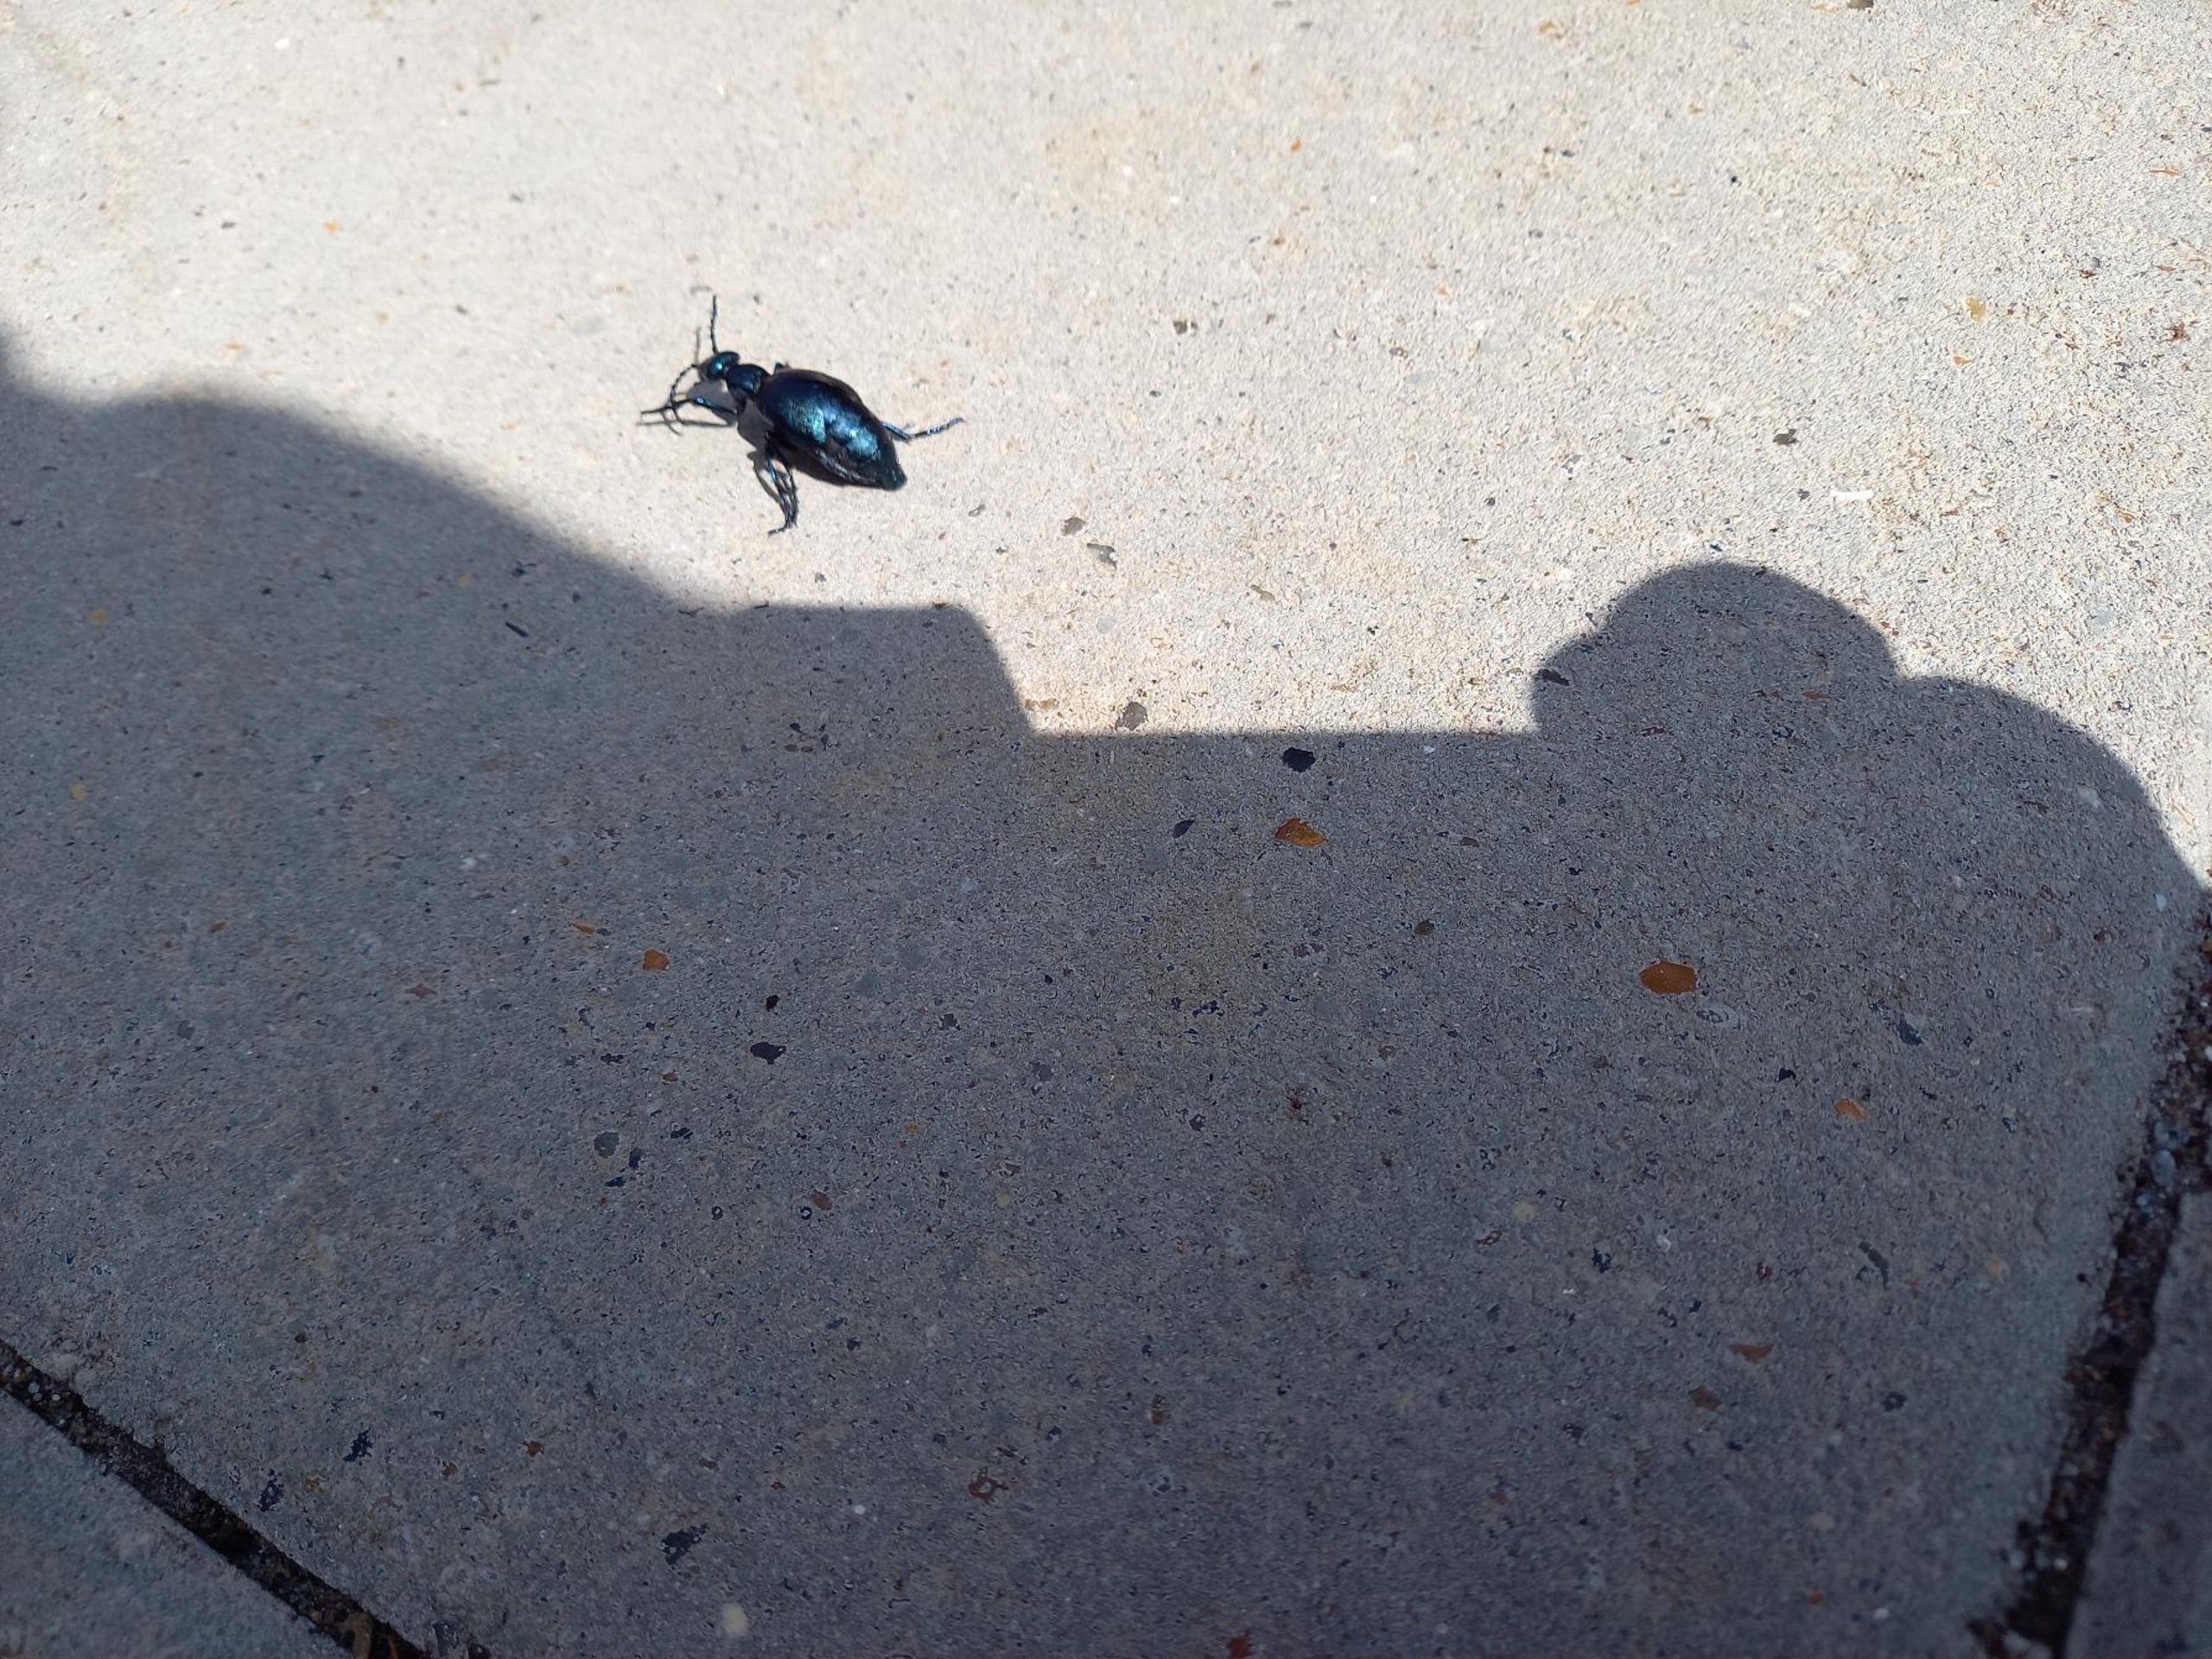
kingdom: Animalia
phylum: Arthropoda
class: Insecta
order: Coleoptera
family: Meloidae
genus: Meloe
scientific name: Meloe violaceus
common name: Blå oliebille
